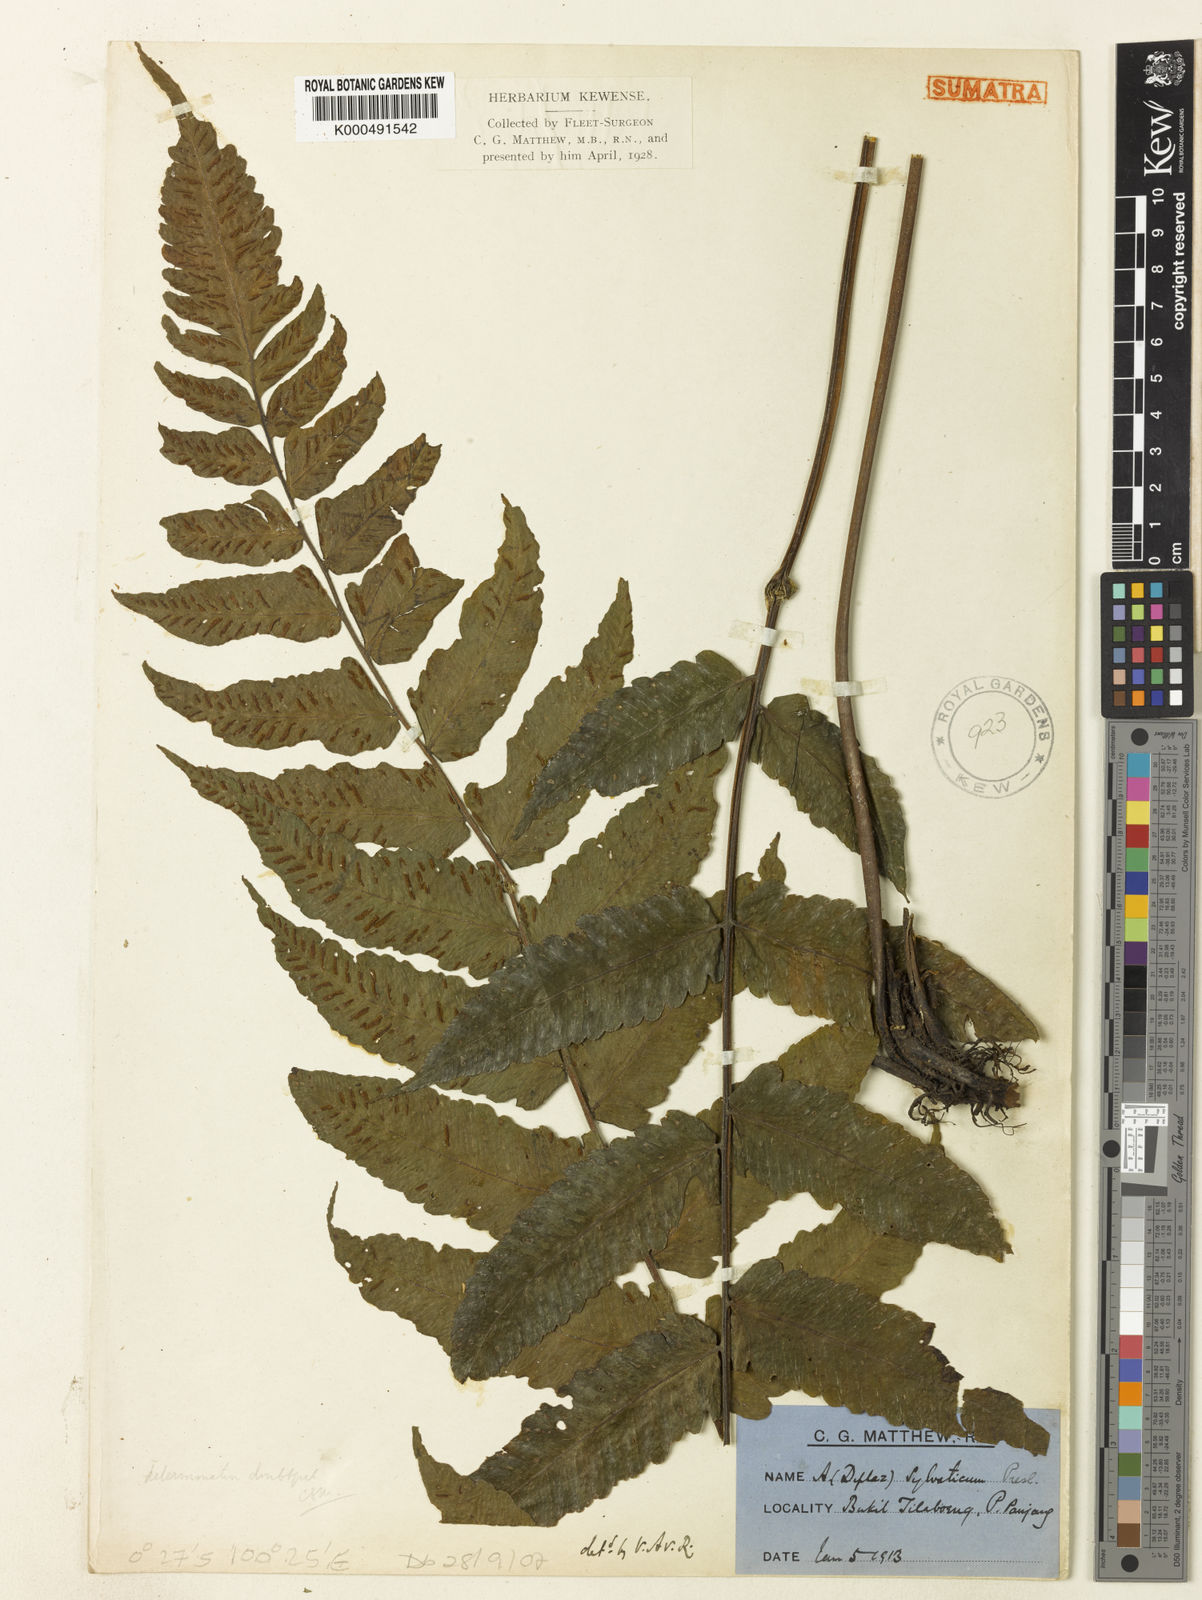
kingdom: Plantae
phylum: Tracheophyta
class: Polypodiopsida
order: Polypodiales
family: Athyriaceae
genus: Diplazium
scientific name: Diplazium sylvaticum
